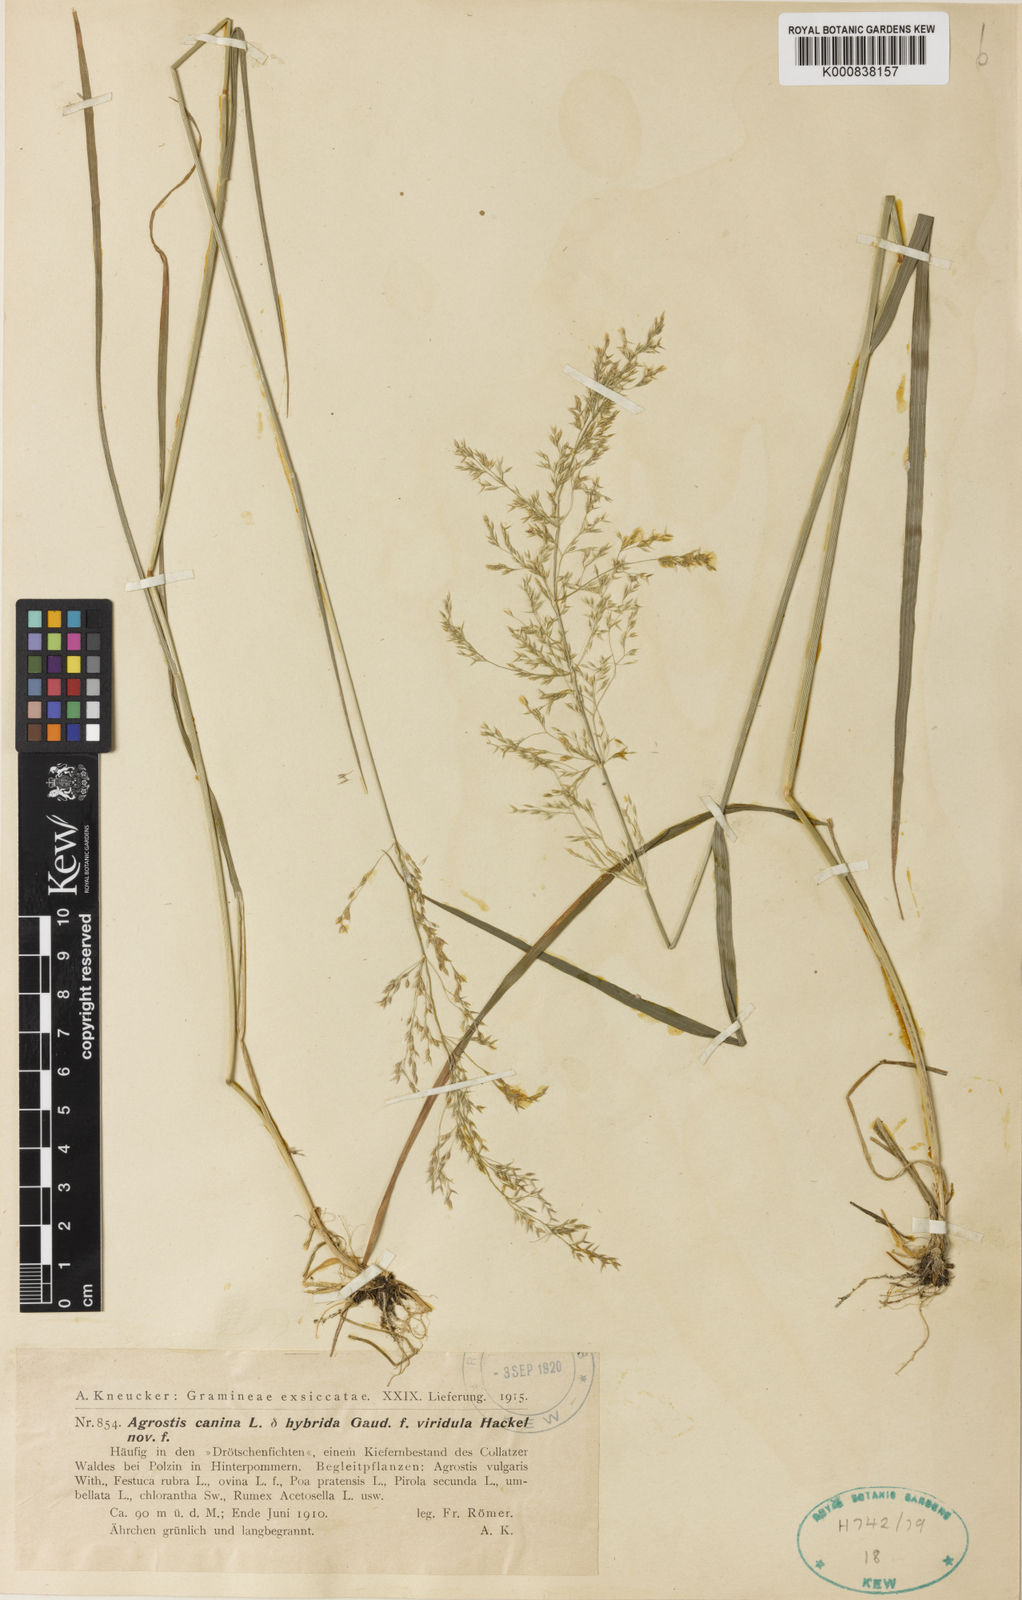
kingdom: Plantae
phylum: Tracheophyta
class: Liliopsida
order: Poales
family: Poaceae
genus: Agrostis
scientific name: Agrostis canina
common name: Velvet bent
